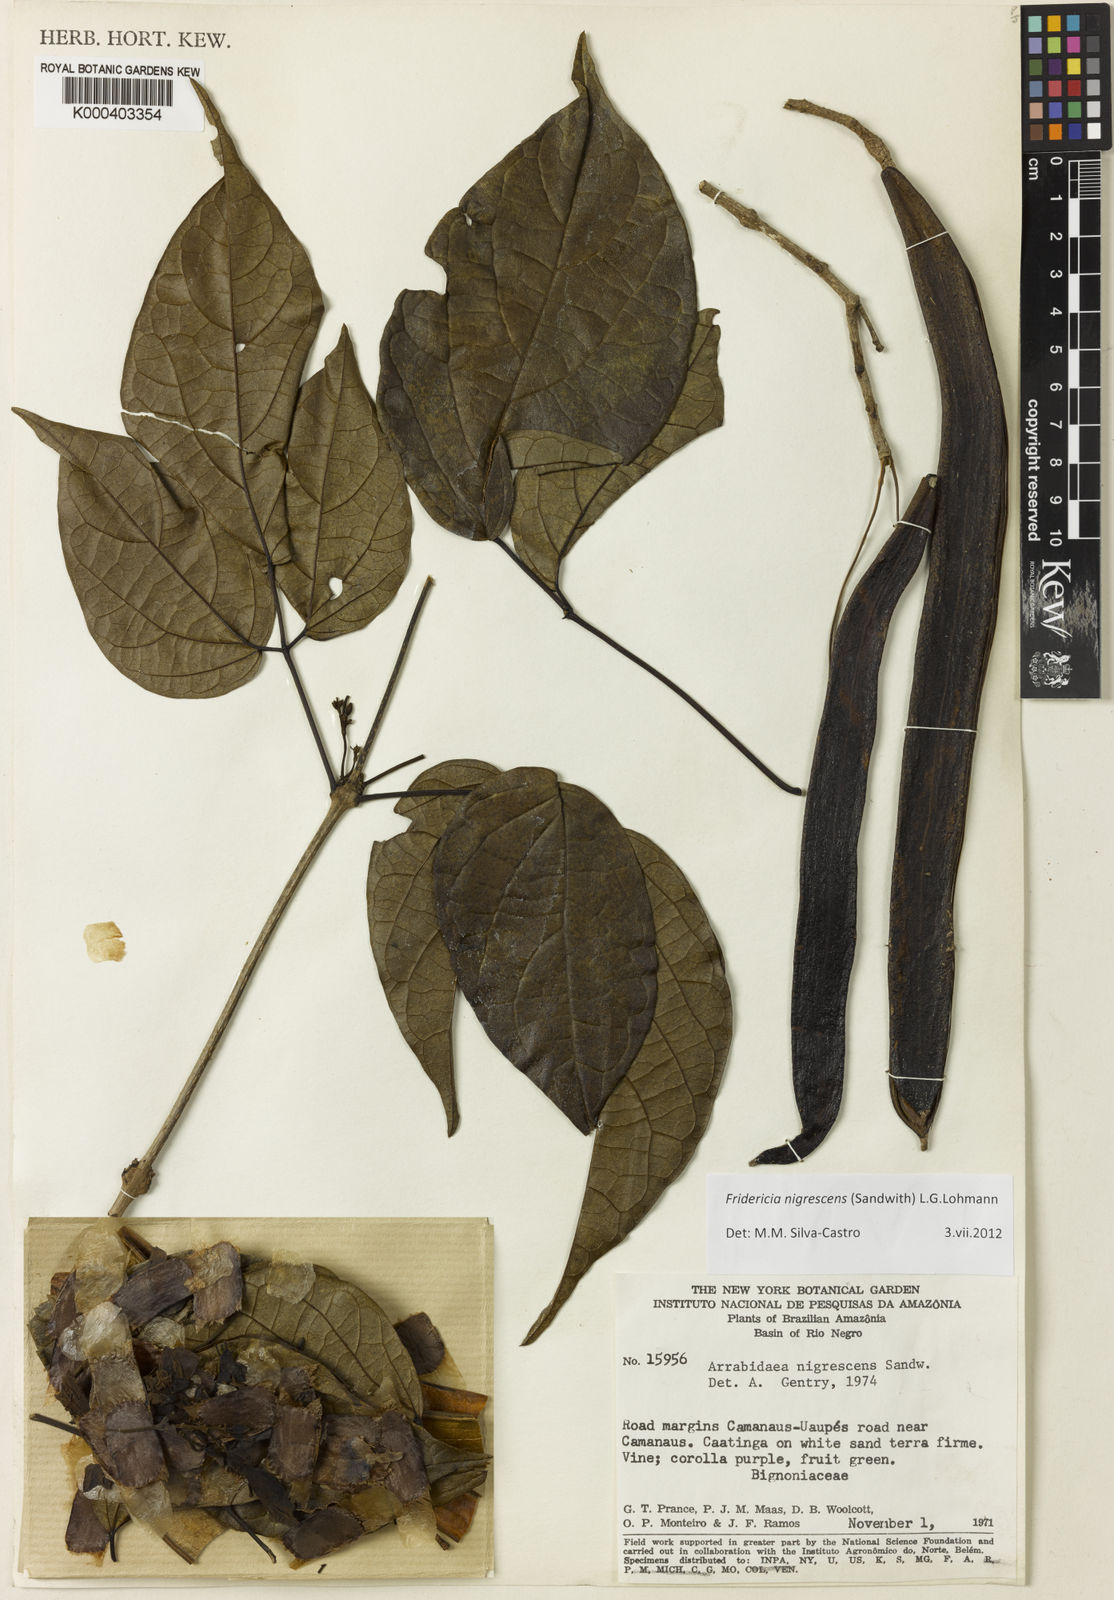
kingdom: Plantae
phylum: Tracheophyta
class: Magnoliopsida
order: Lamiales
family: Bignoniaceae
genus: Fridericia
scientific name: Fridericia nigrescens
